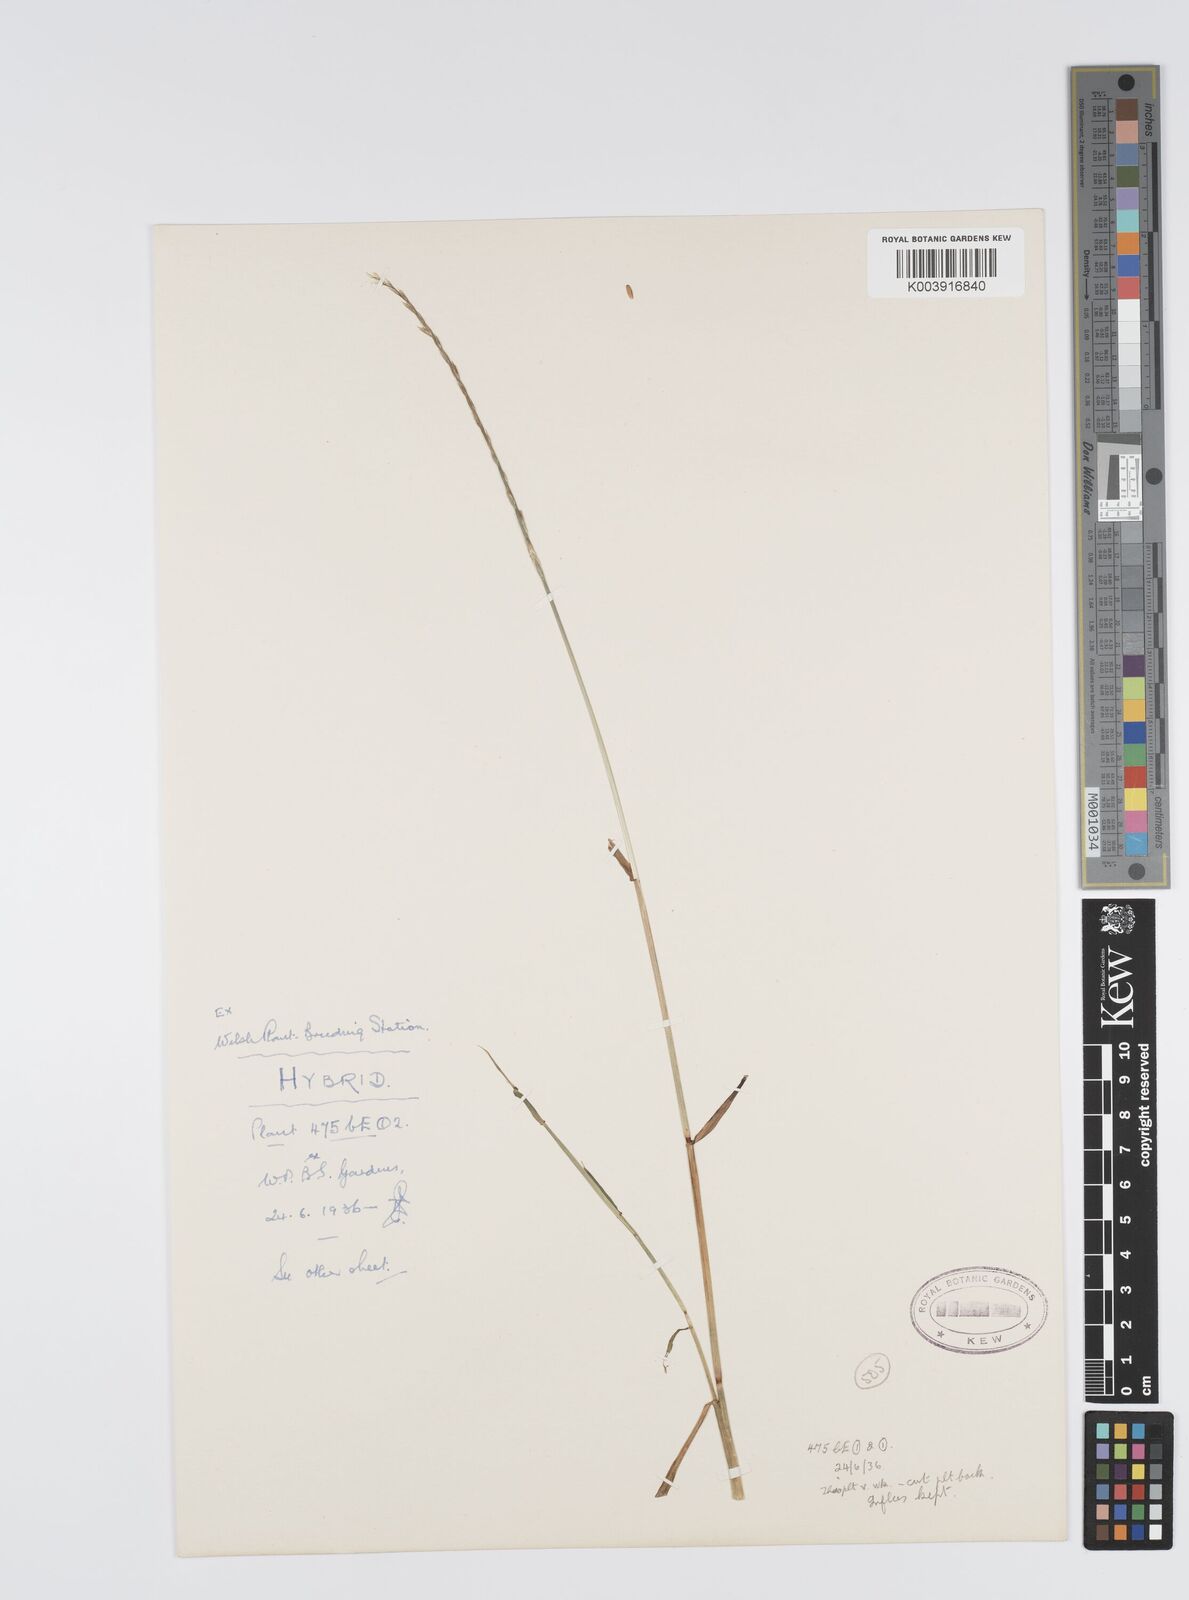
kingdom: Plantae
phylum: Tracheophyta
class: Liliopsida
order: Poales
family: Poaceae
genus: Lolium
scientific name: Lolium perenne
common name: Perennial ryegrass
